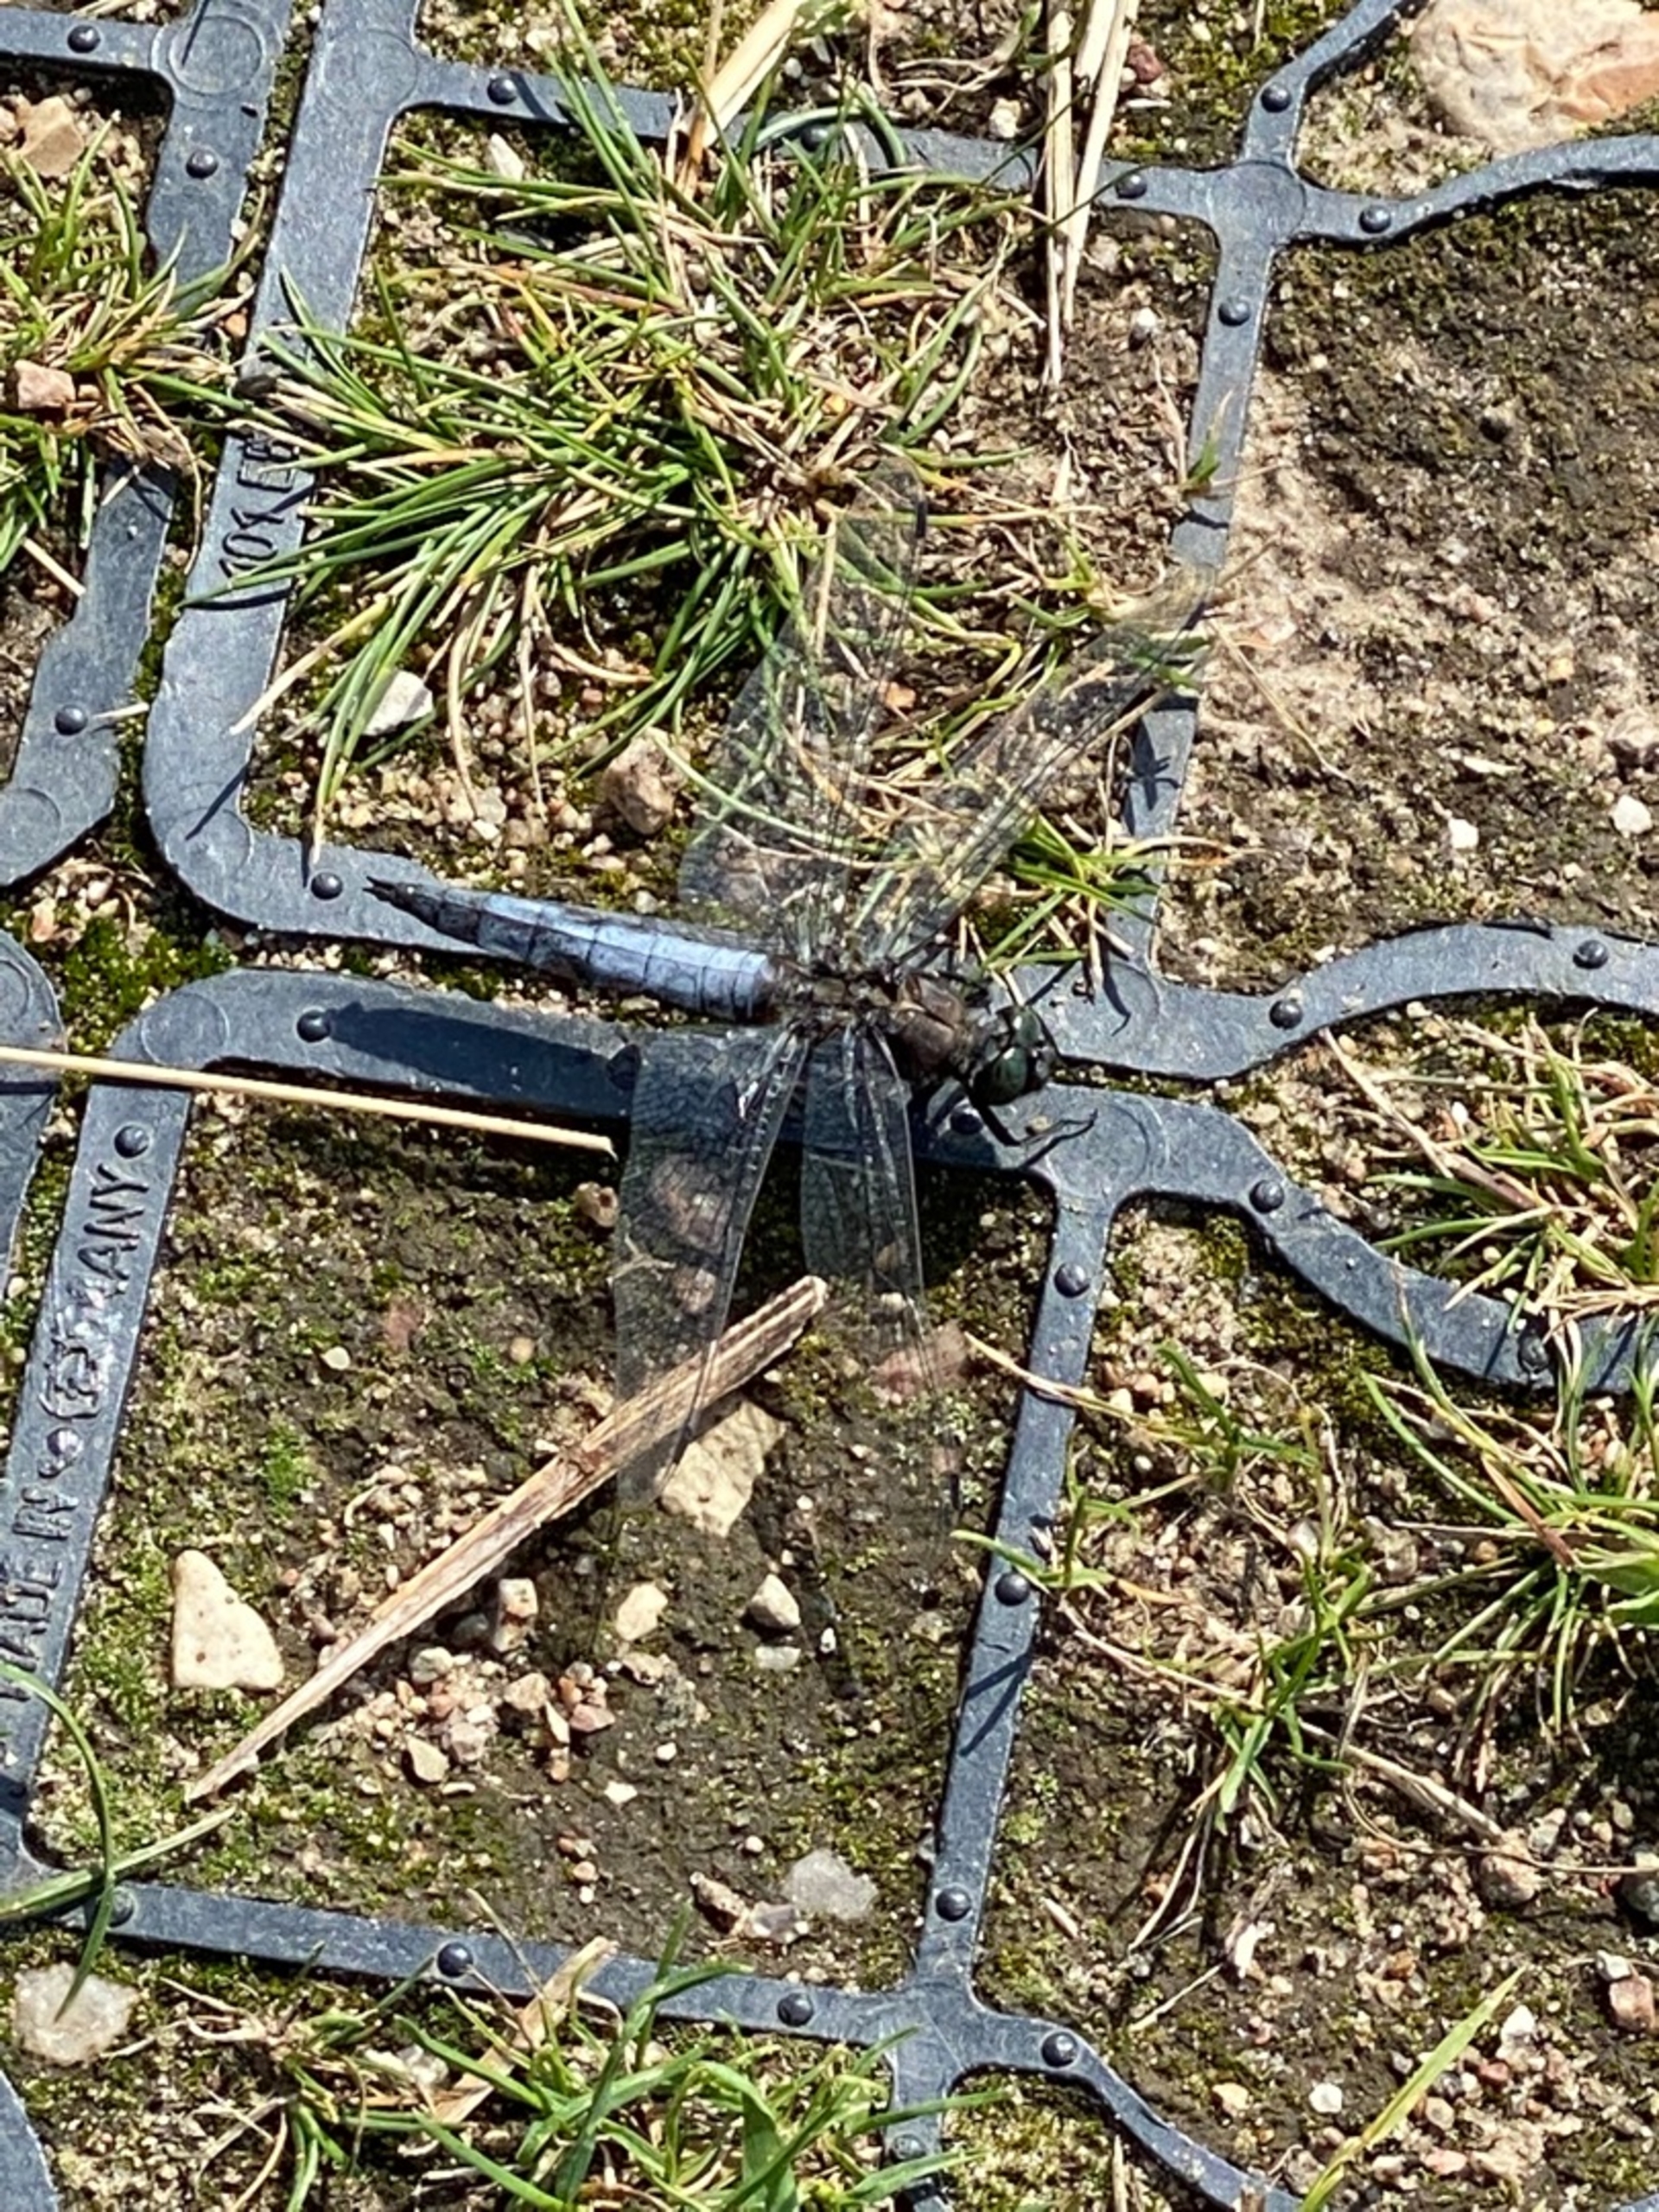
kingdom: Animalia
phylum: Arthropoda
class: Insecta
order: Odonata
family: Libellulidae
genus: Orthetrum
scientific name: Orthetrum cancellatum
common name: Stor blåpil
